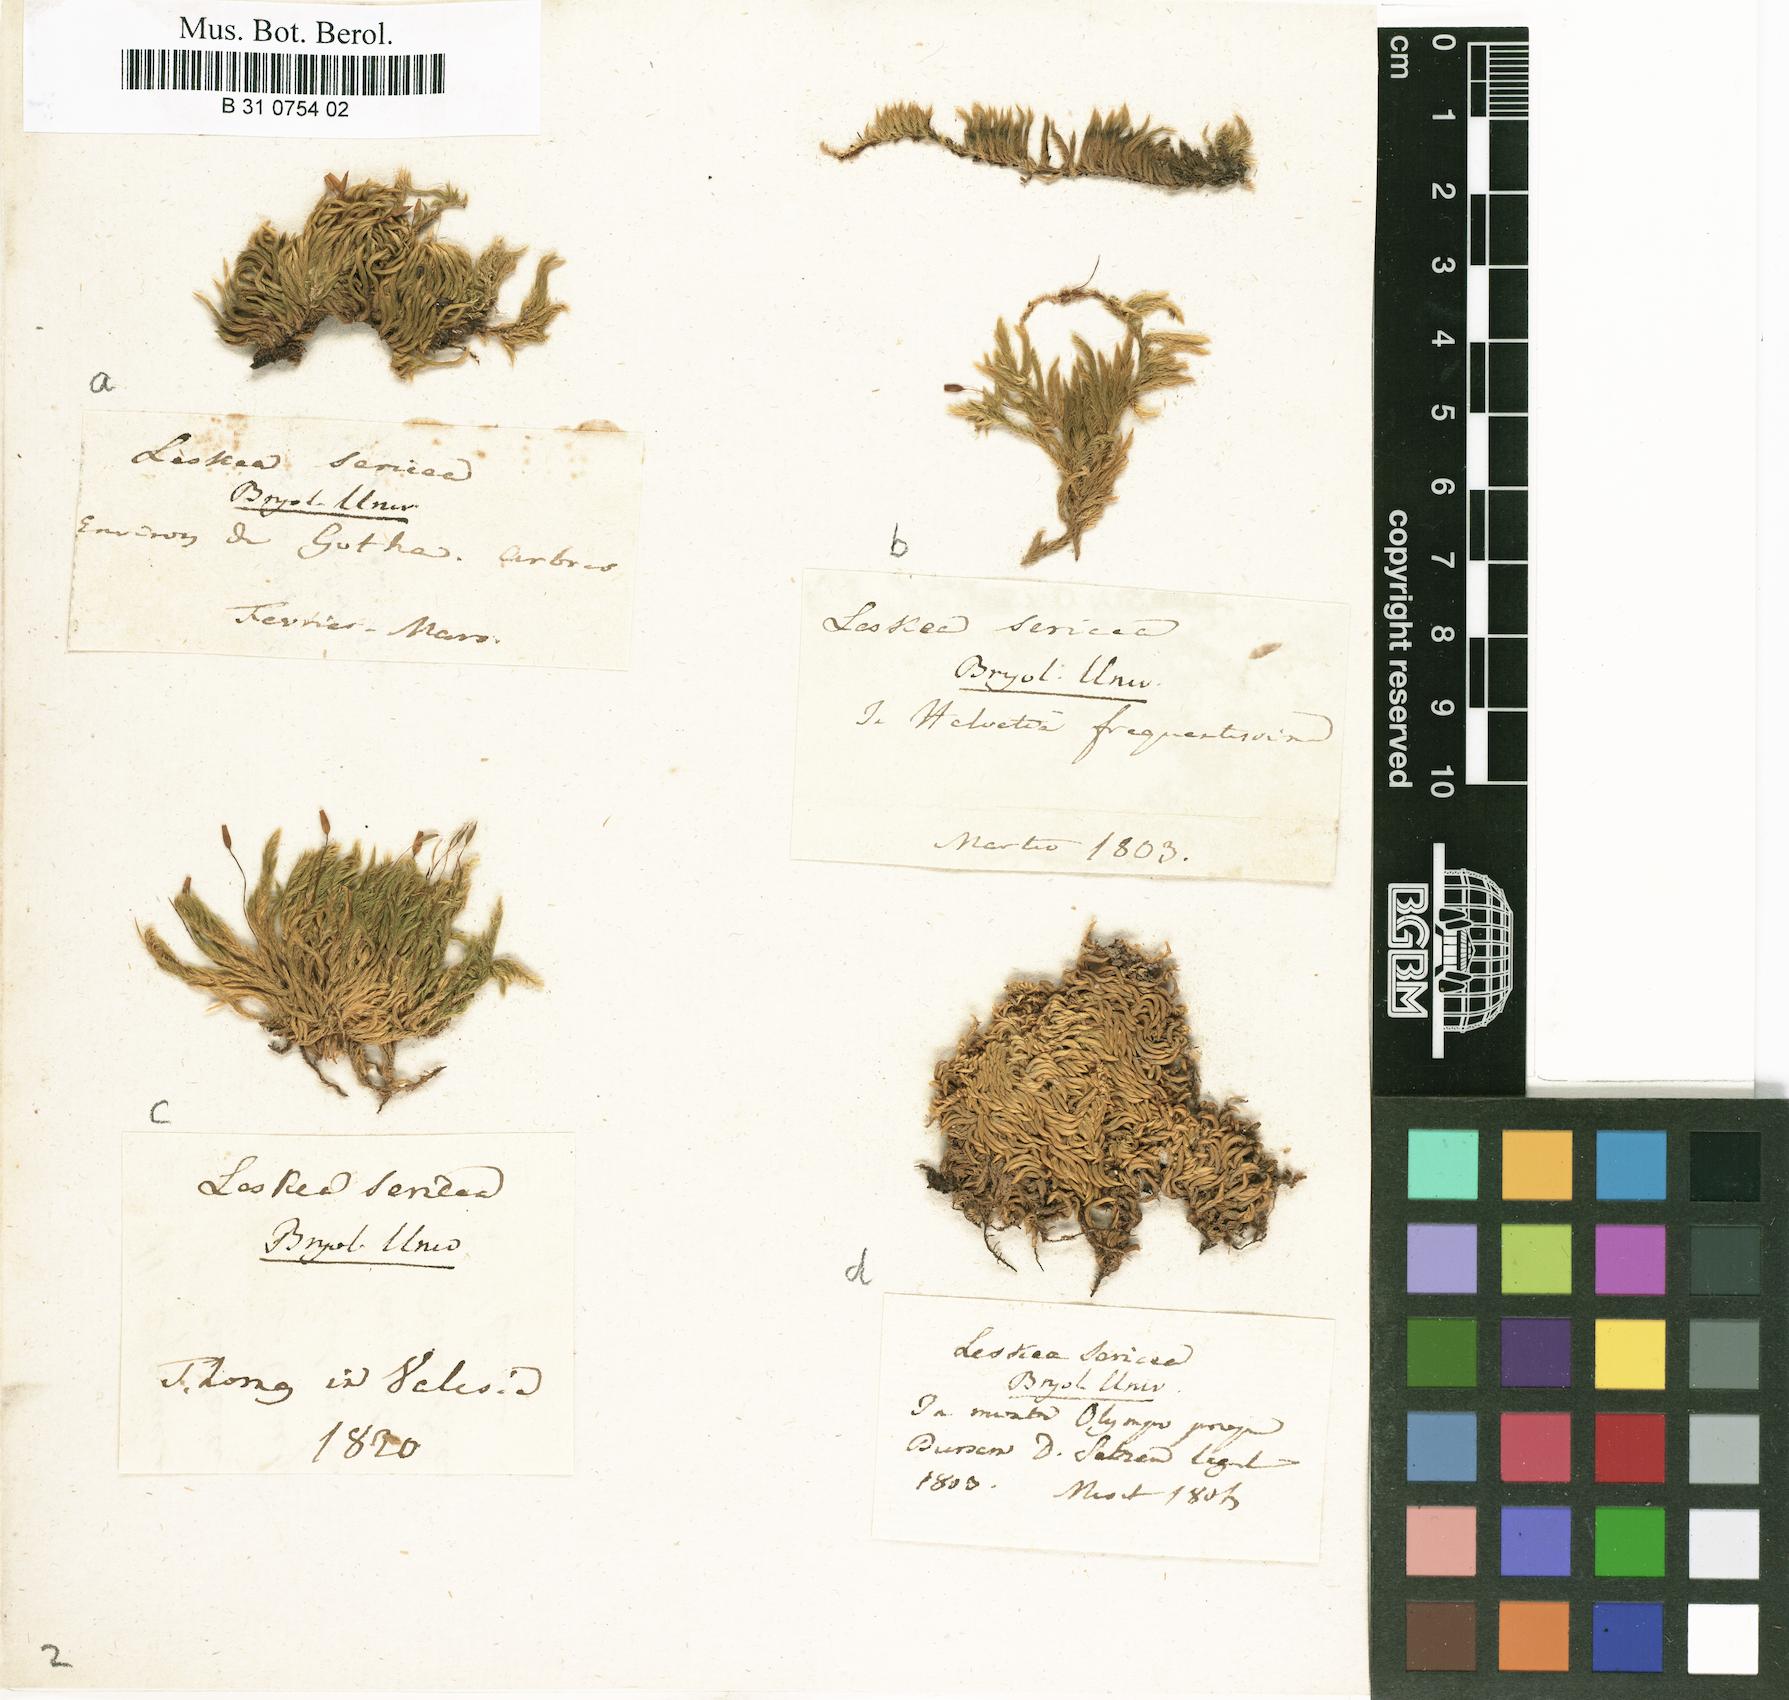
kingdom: Plantae
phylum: Bryophyta
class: Bryopsida
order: Hypnales
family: Brachytheciaceae
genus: Homalothecium
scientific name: Homalothecium sericeum
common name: Silky wall feather-moss
